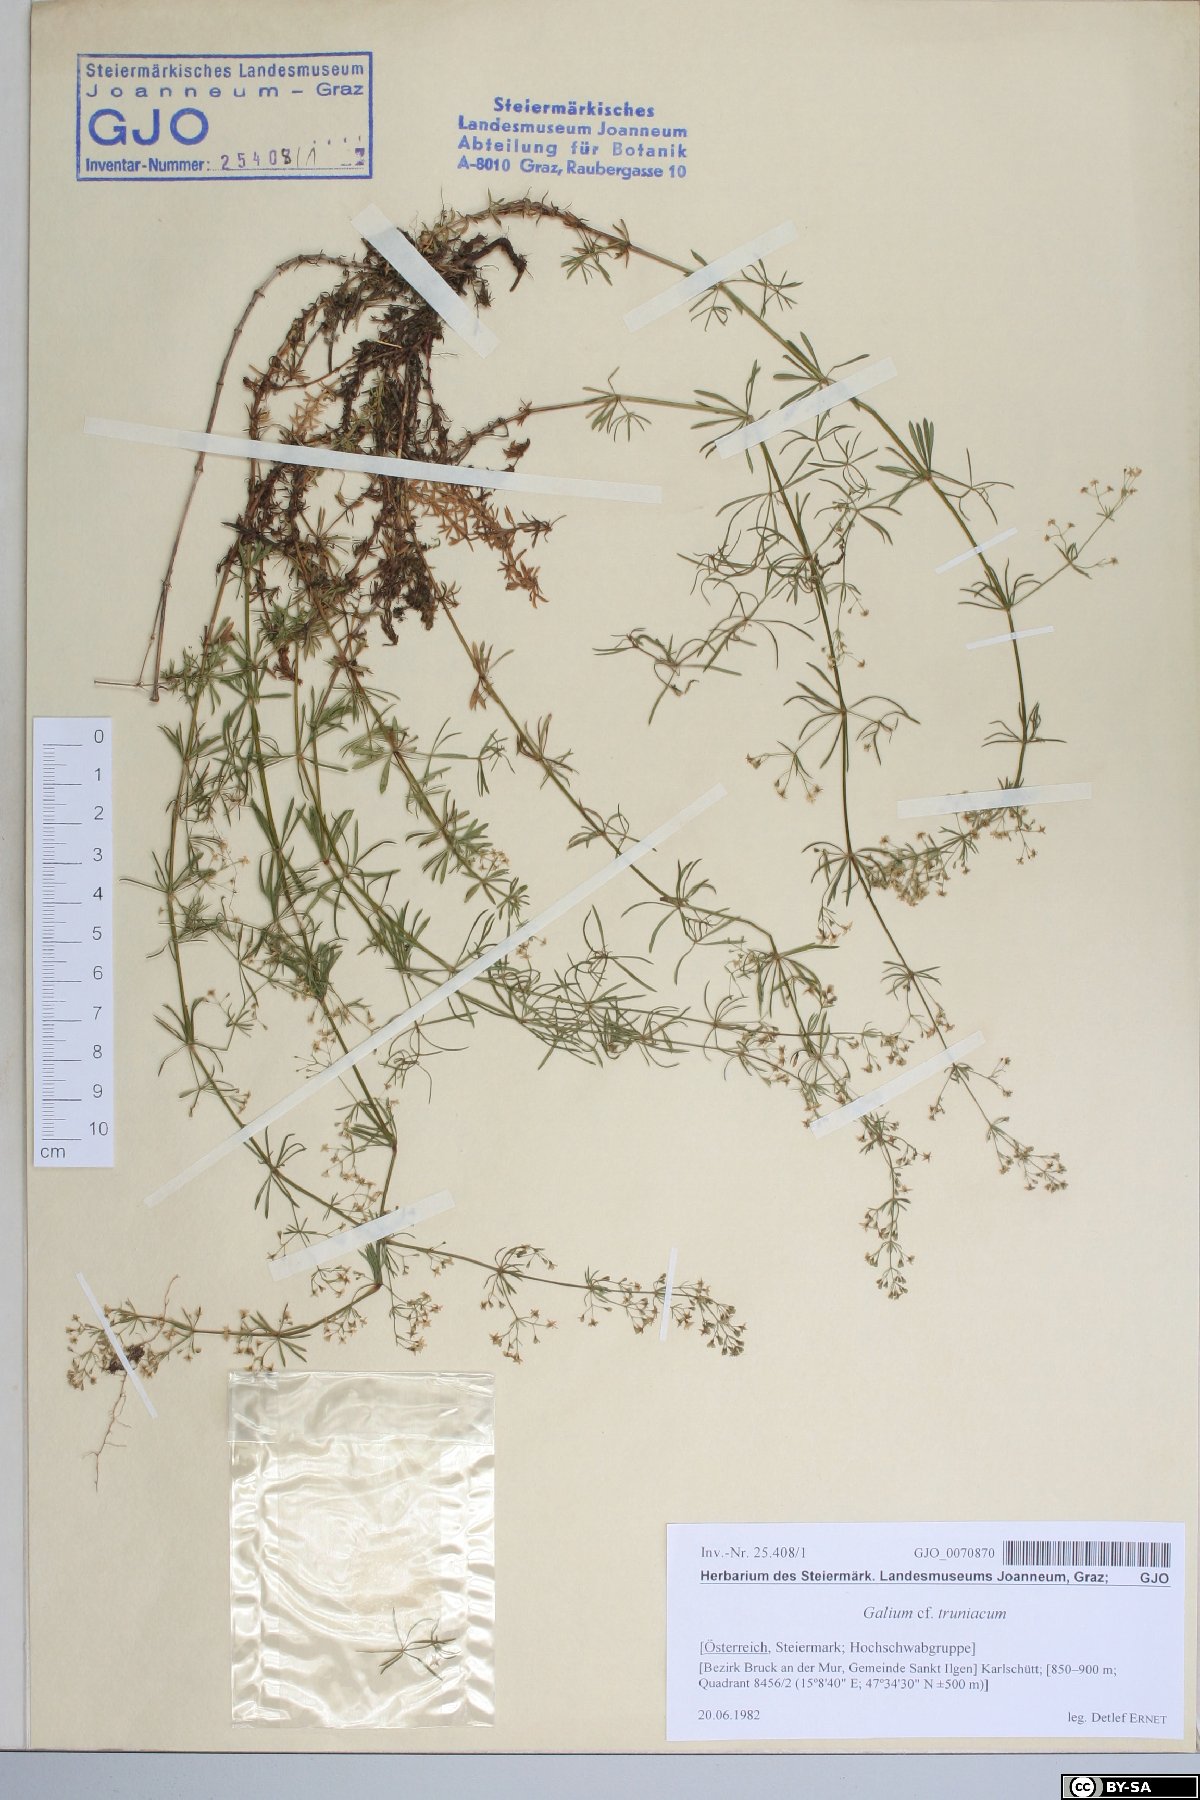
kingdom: Plantae
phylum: Tracheophyta
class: Magnoliopsida
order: Gentianales
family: Rubiaceae
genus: Galium
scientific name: Galium truniacum
